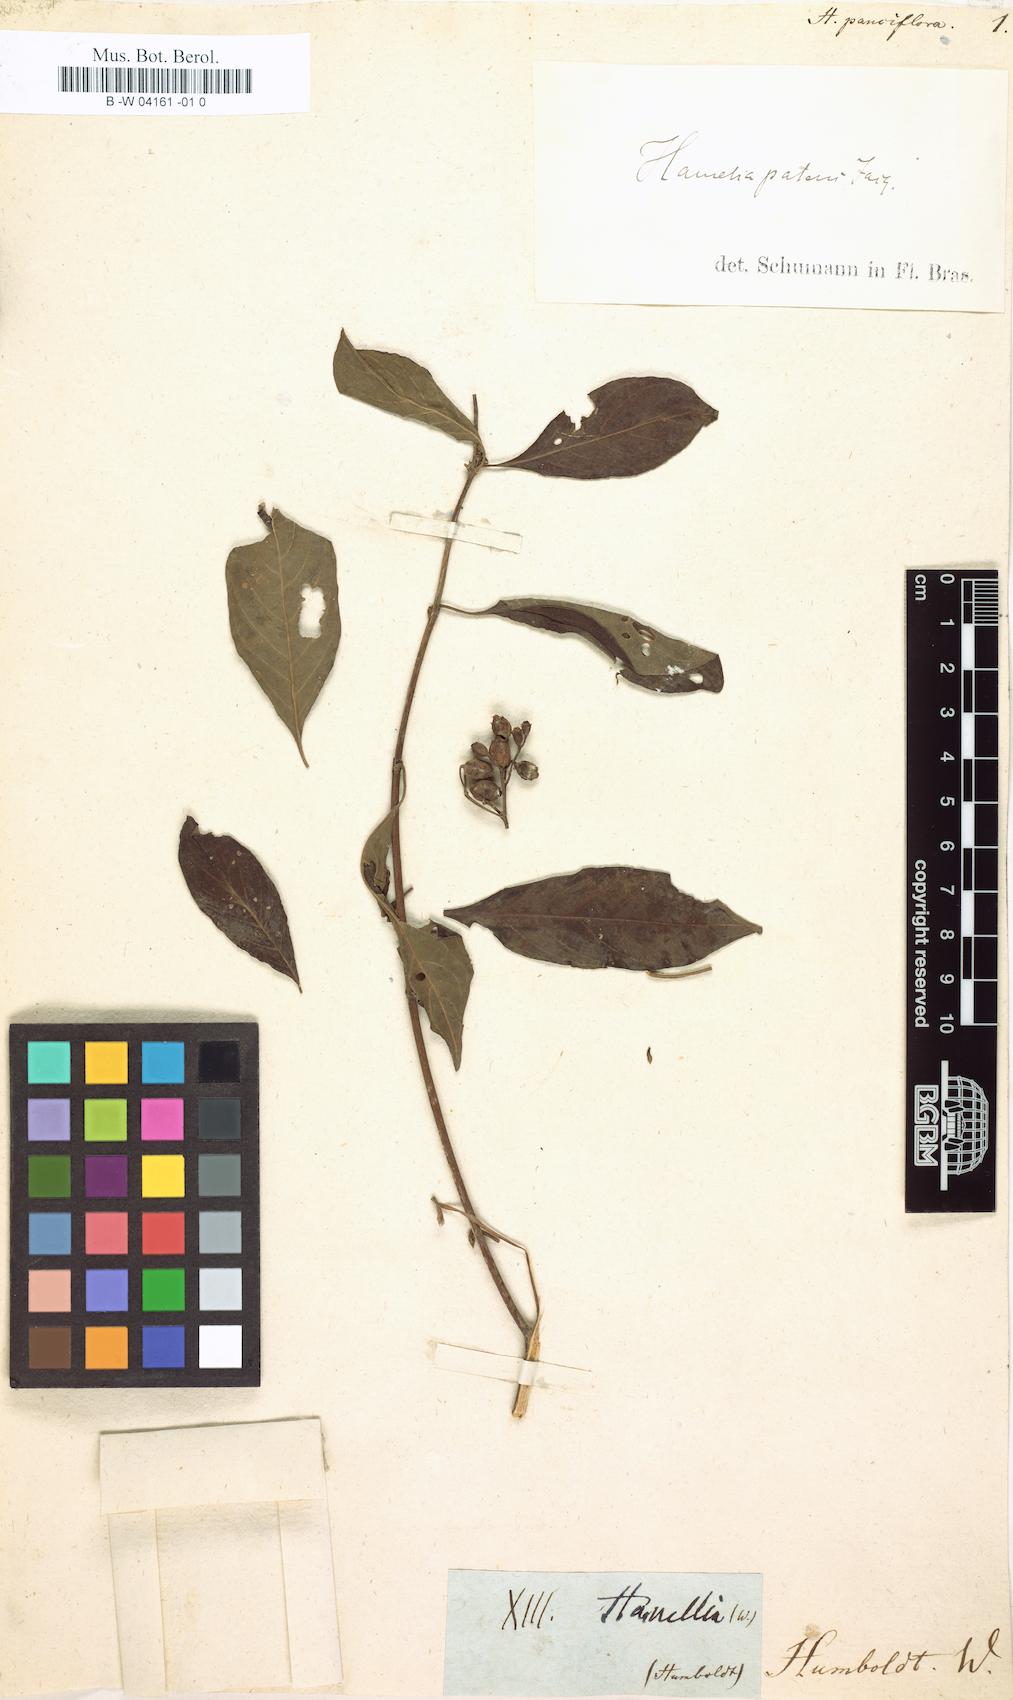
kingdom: Plantae
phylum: Tracheophyta
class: Magnoliopsida
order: Gentianales
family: Rubiaceae
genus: Hamelia
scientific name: Hamelia ventricosa
